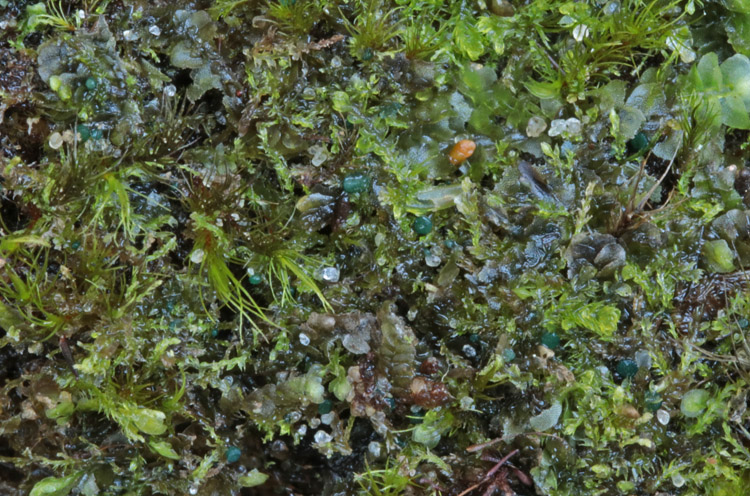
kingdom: Fungi
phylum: Ascomycota
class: Leotiomycetes
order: Leotiales
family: Mniaeciaceae
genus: Mniaecia
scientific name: Mniaecia jungermanniae
